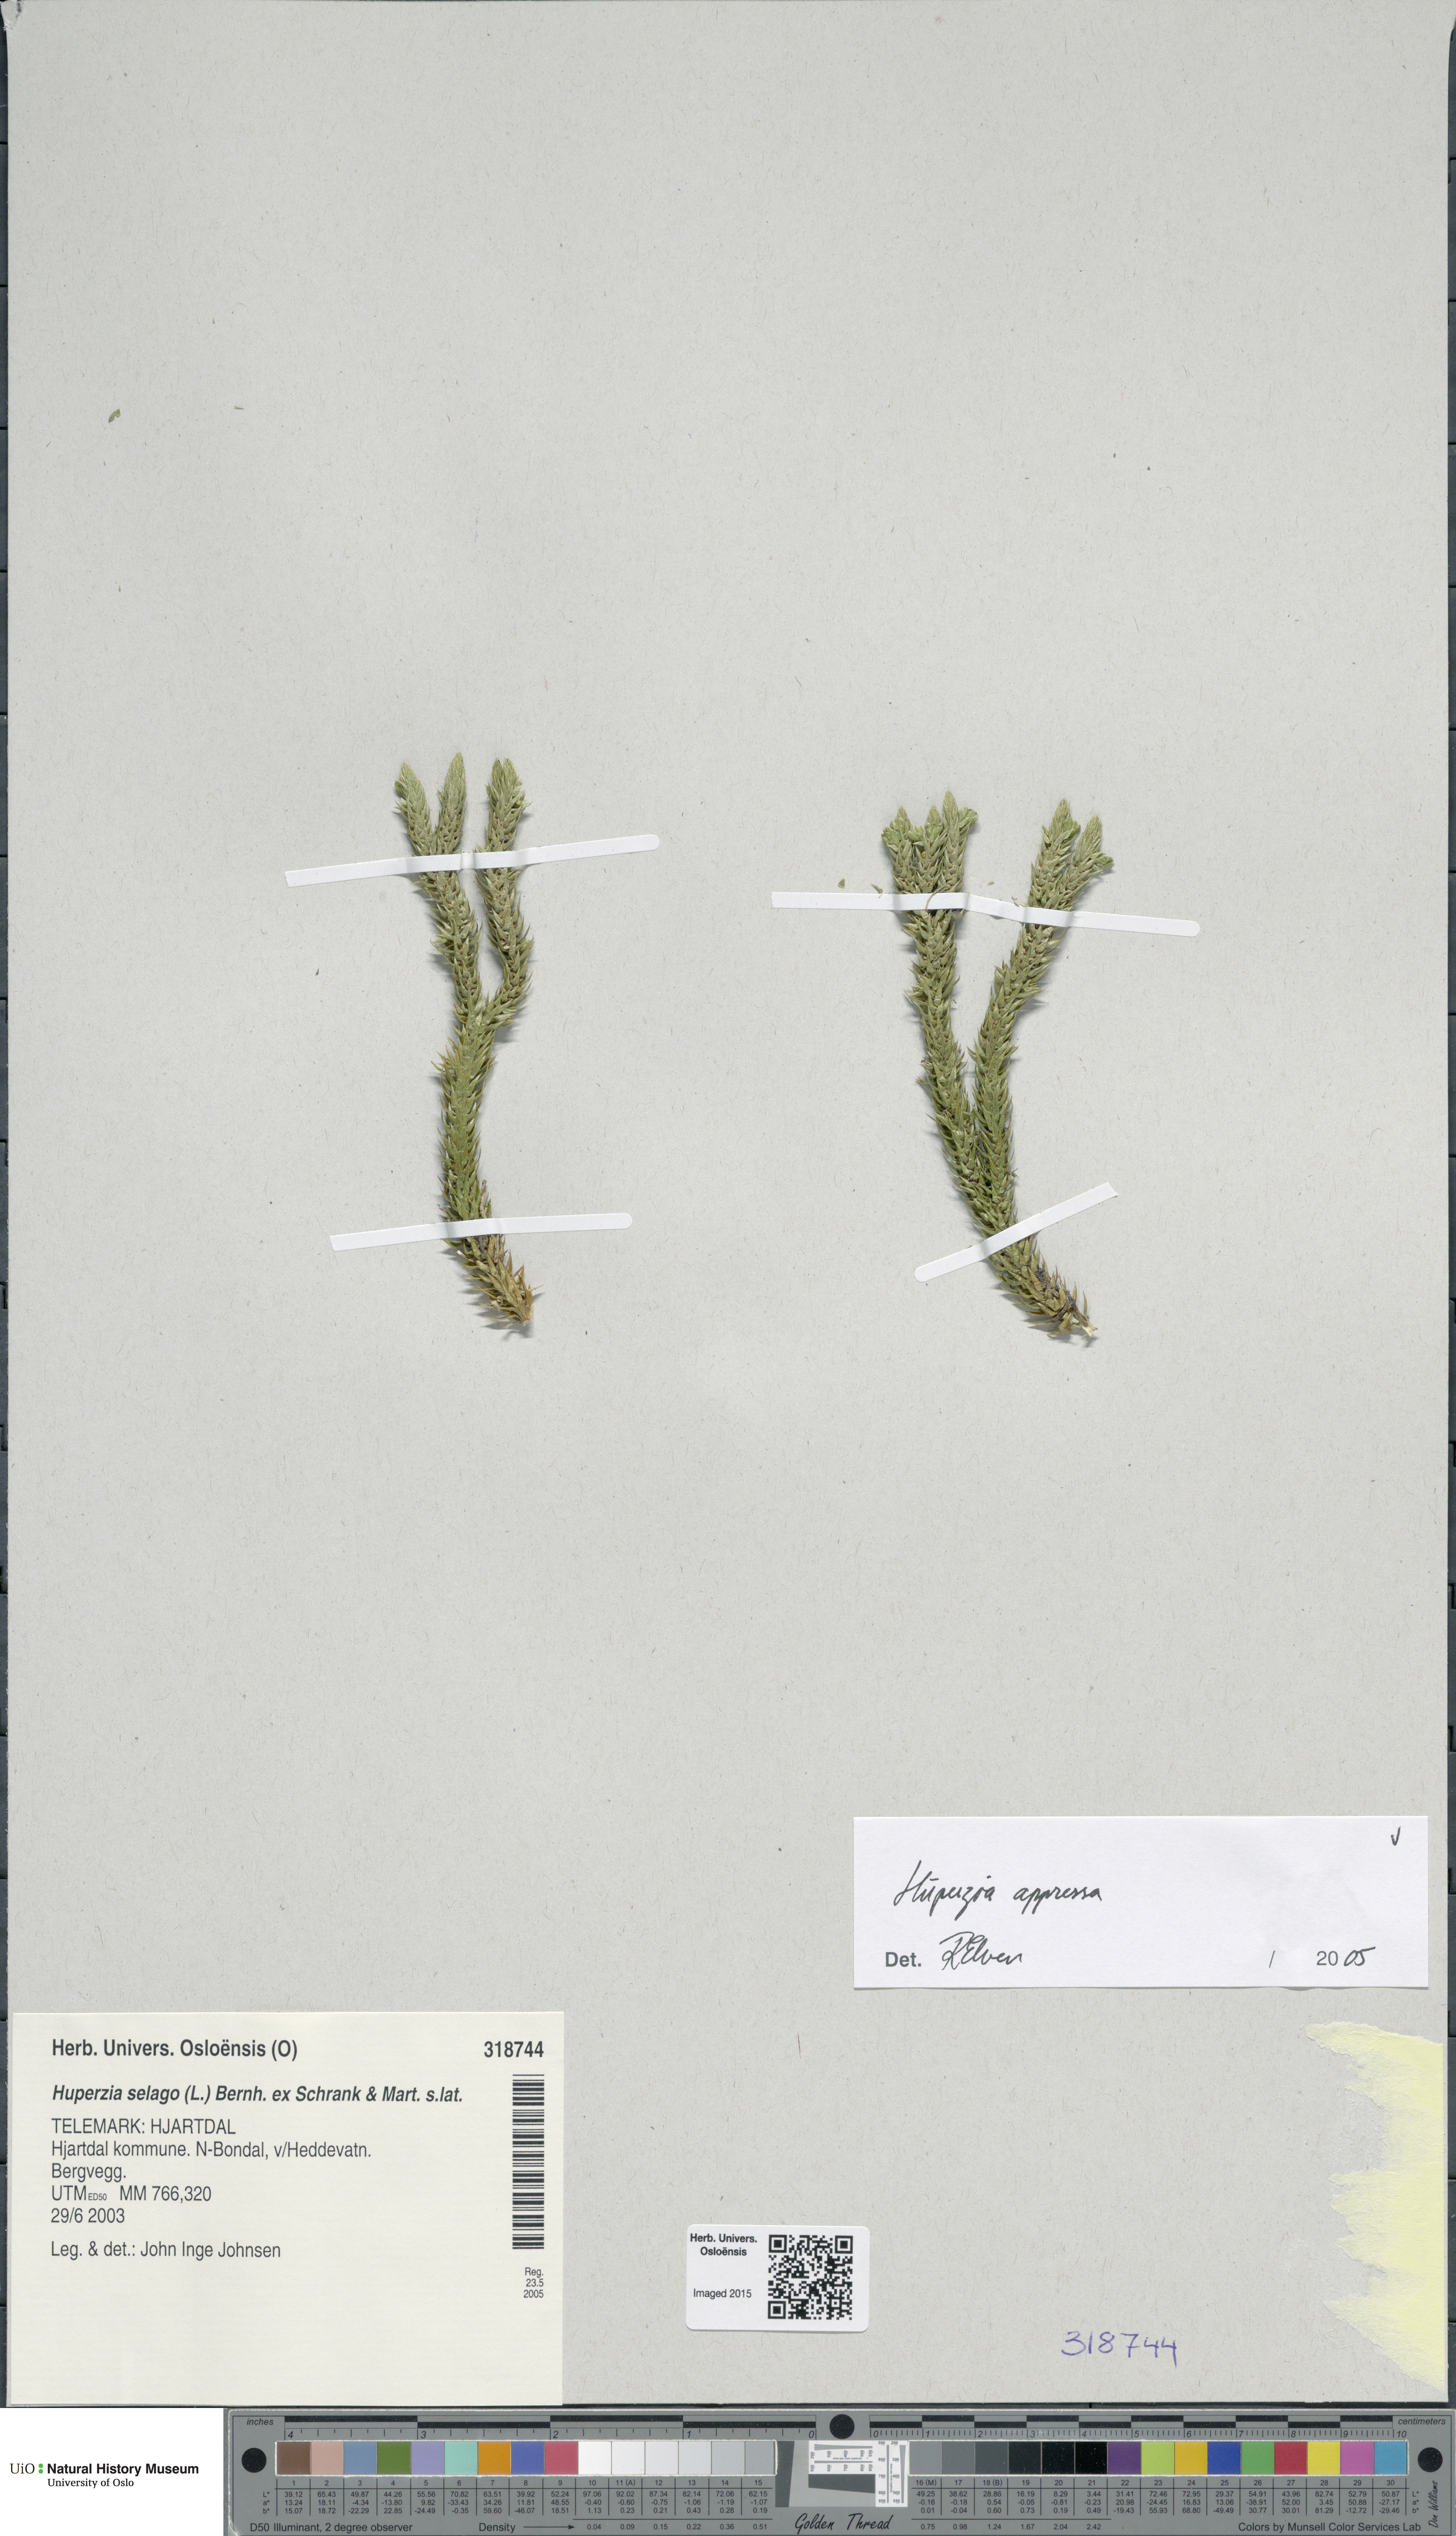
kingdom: Plantae
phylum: Tracheophyta
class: Lycopodiopsida
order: Lycopodiales
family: Lycopodiaceae
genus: Huperzia
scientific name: Huperzia selago
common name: Northern firmoss
